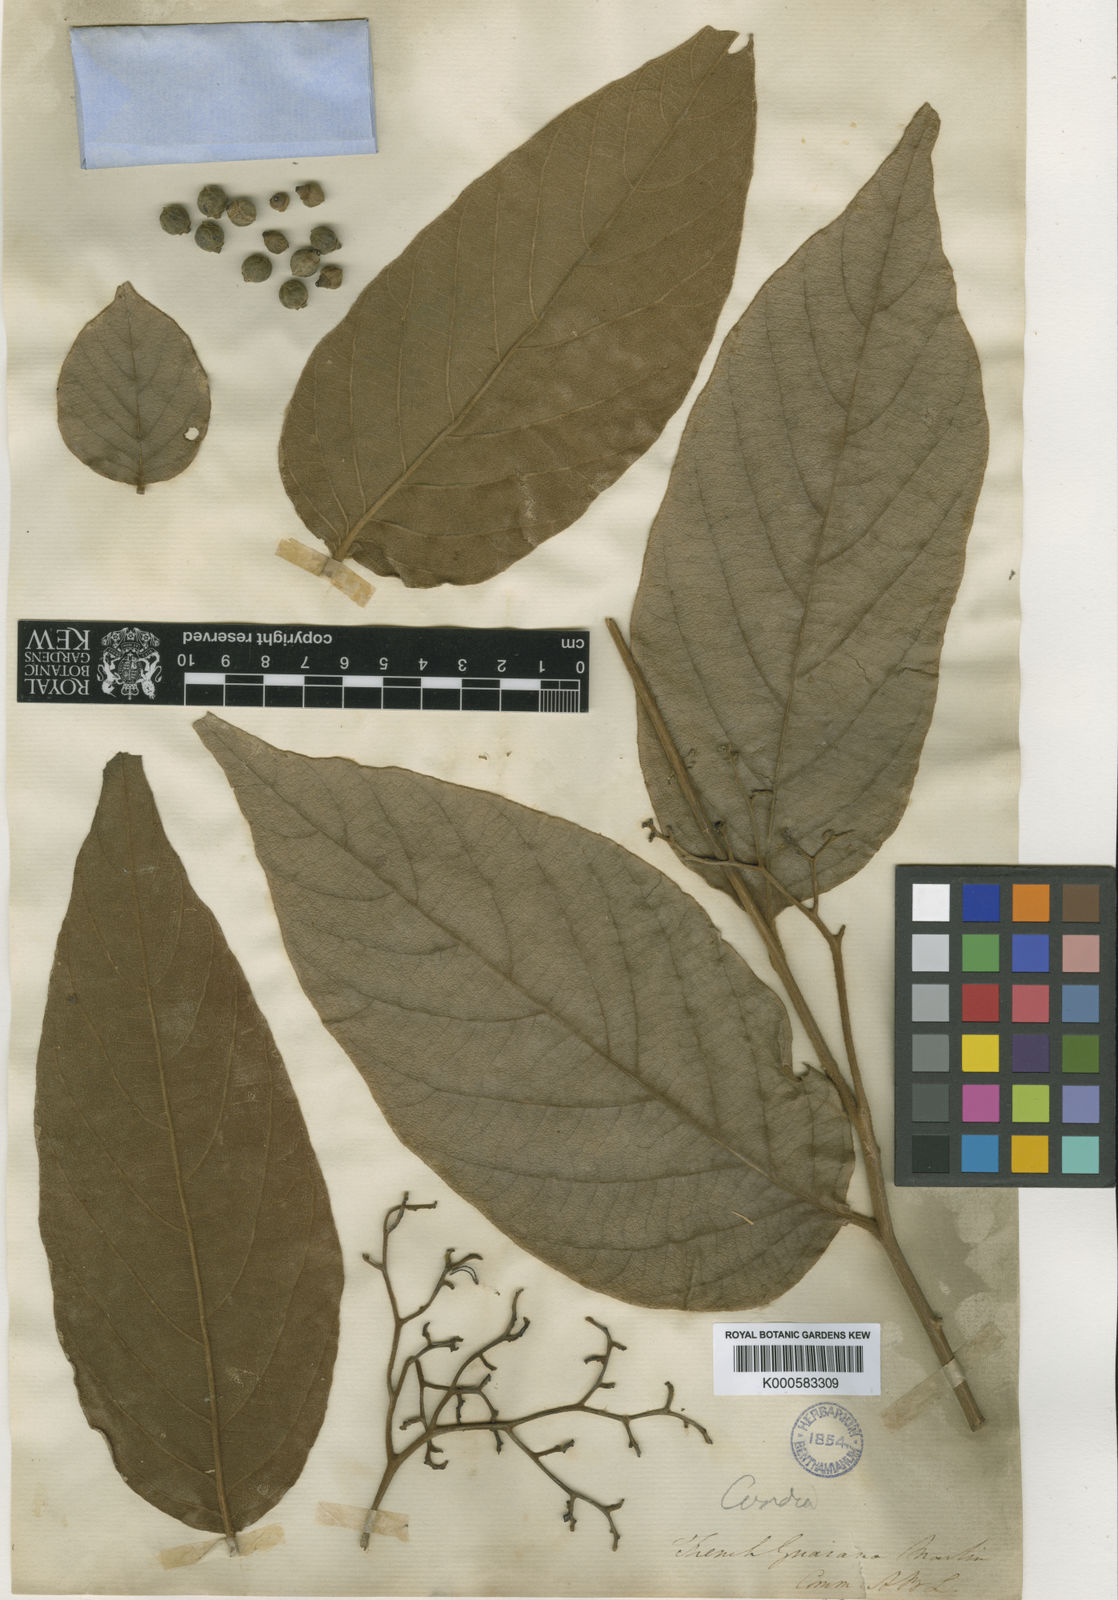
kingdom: Plantae
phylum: Tracheophyta
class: Magnoliopsida
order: Boraginales
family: Cordiaceae
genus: Cordia
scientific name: Cordia toqueve
